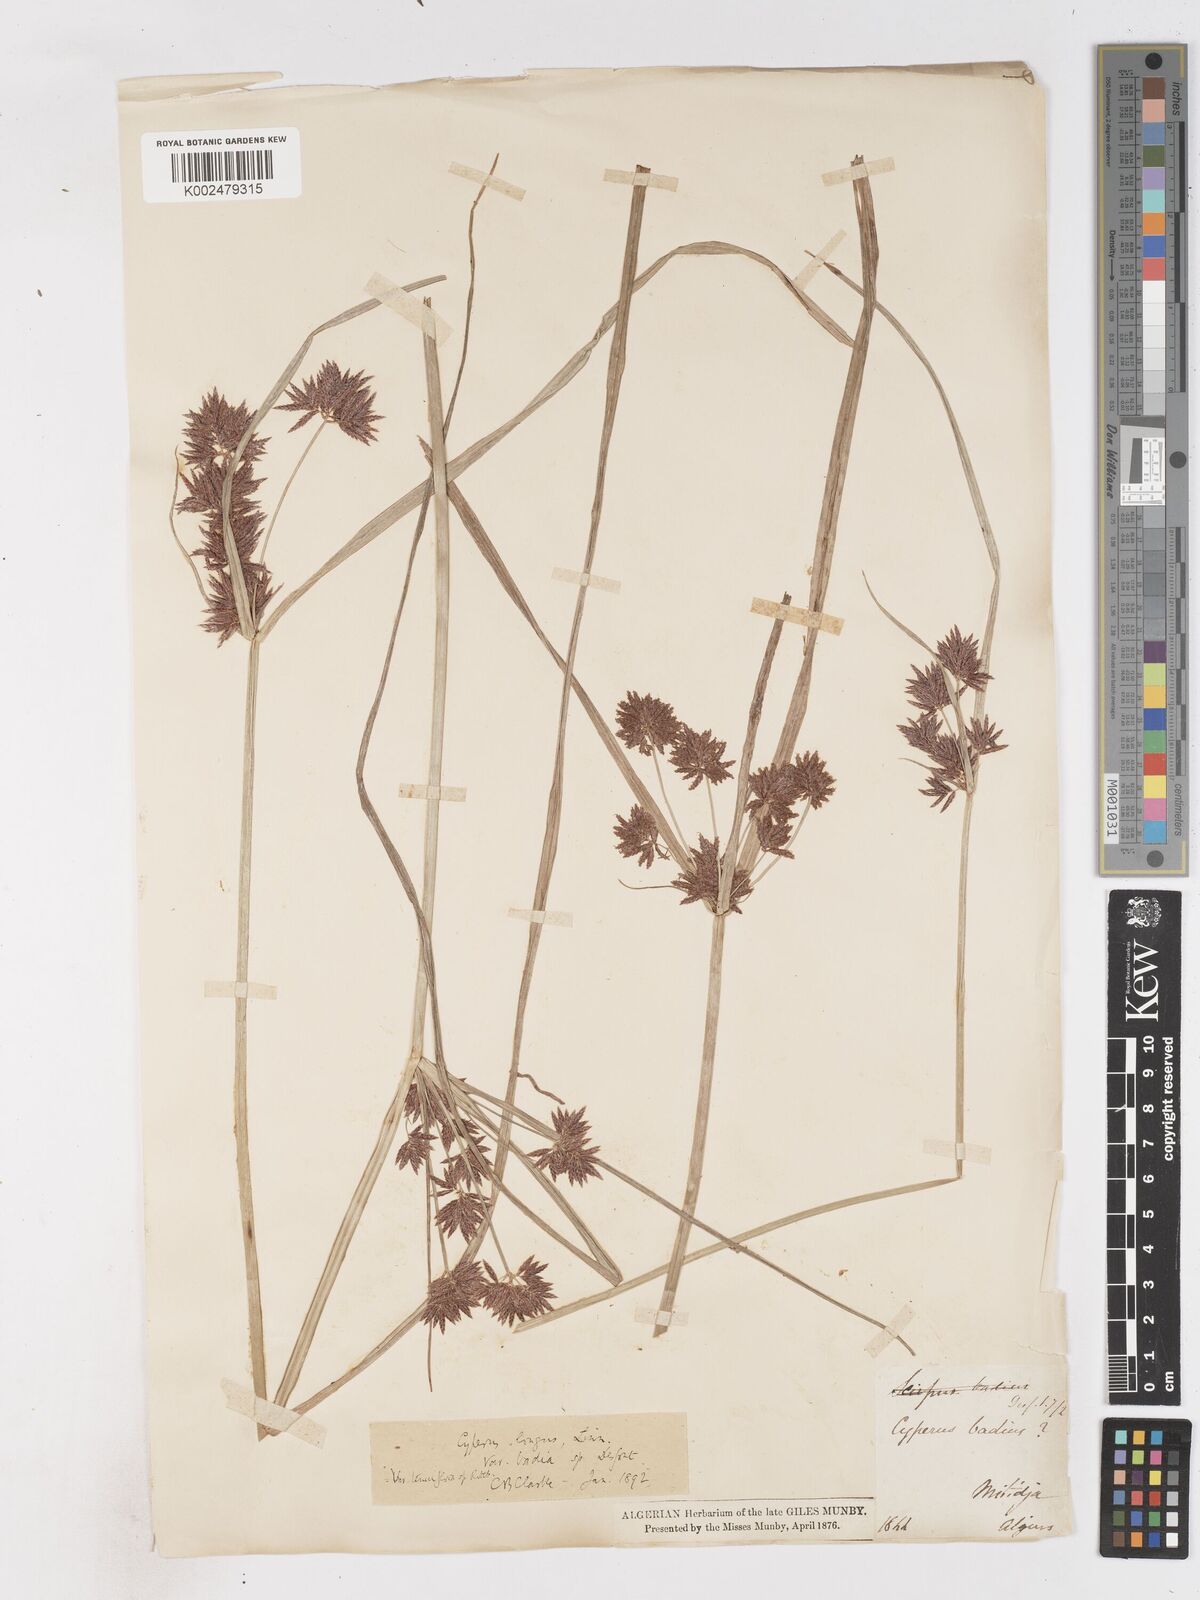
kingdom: Plantae
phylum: Tracheophyta
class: Liliopsida
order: Poales
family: Cyperaceae
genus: Cyperus
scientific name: Cyperus longus
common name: Galingale
